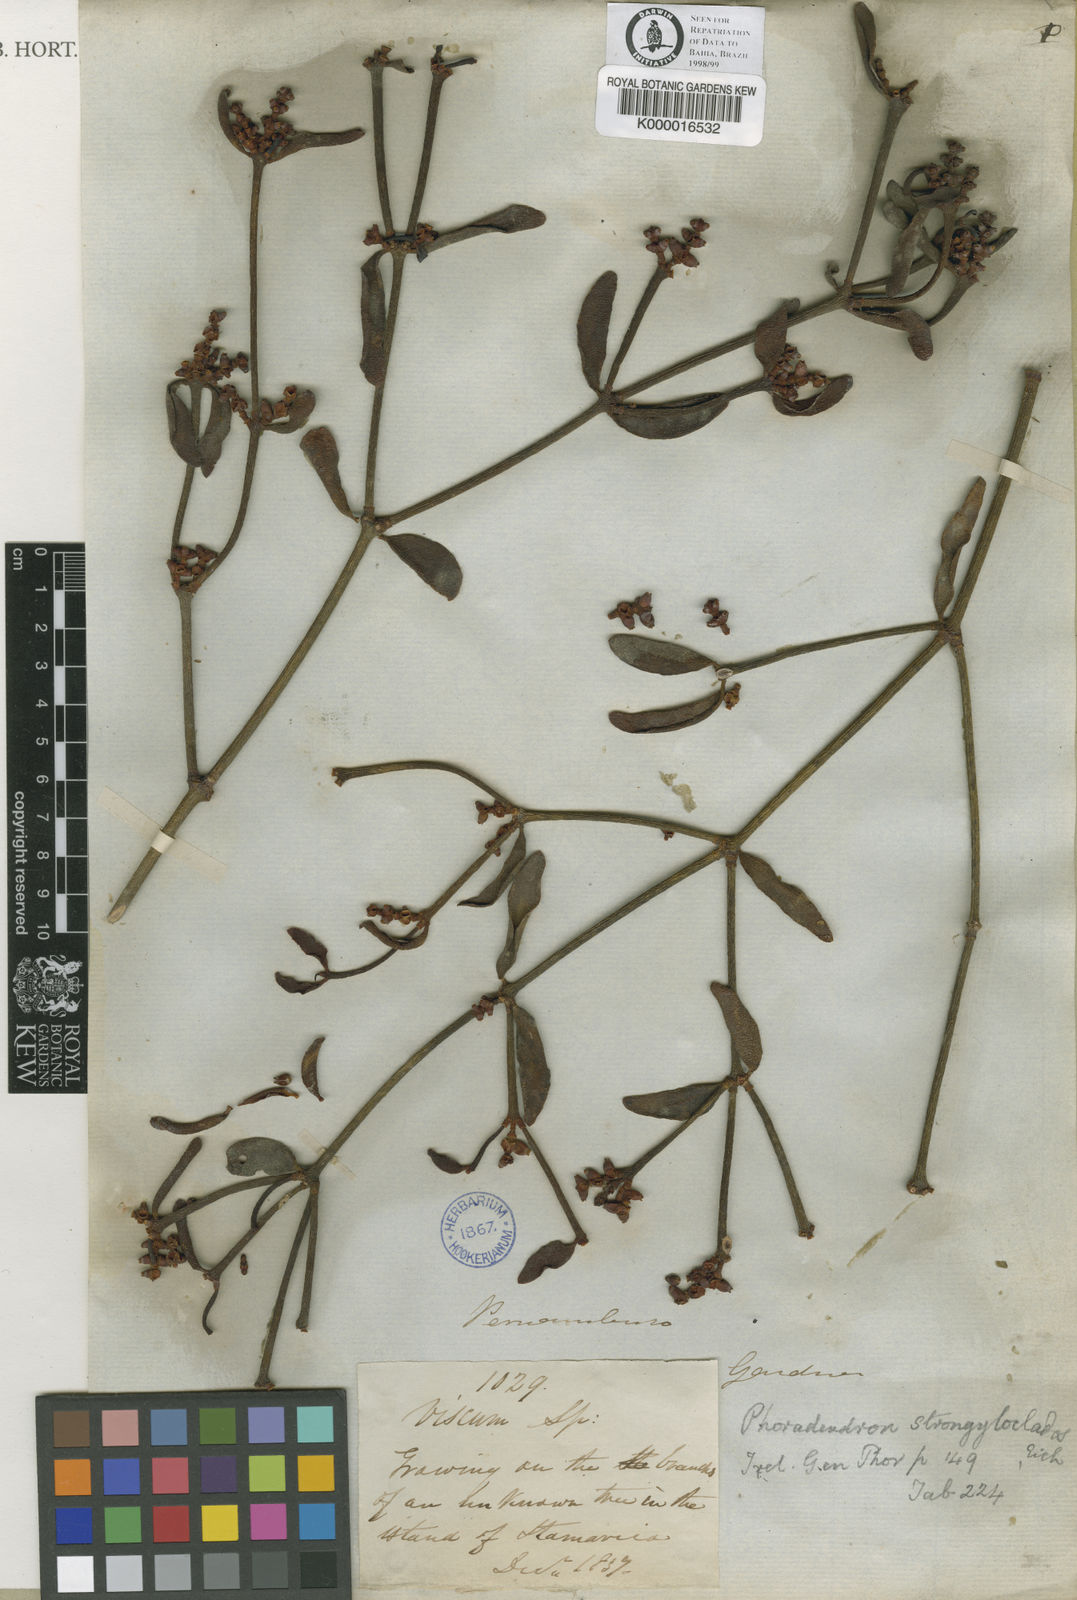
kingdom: Plantae
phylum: Tracheophyta
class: Magnoliopsida
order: Santalales
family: Viscaceae
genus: Phoradendron
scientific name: Phoradendron strongyloclados
